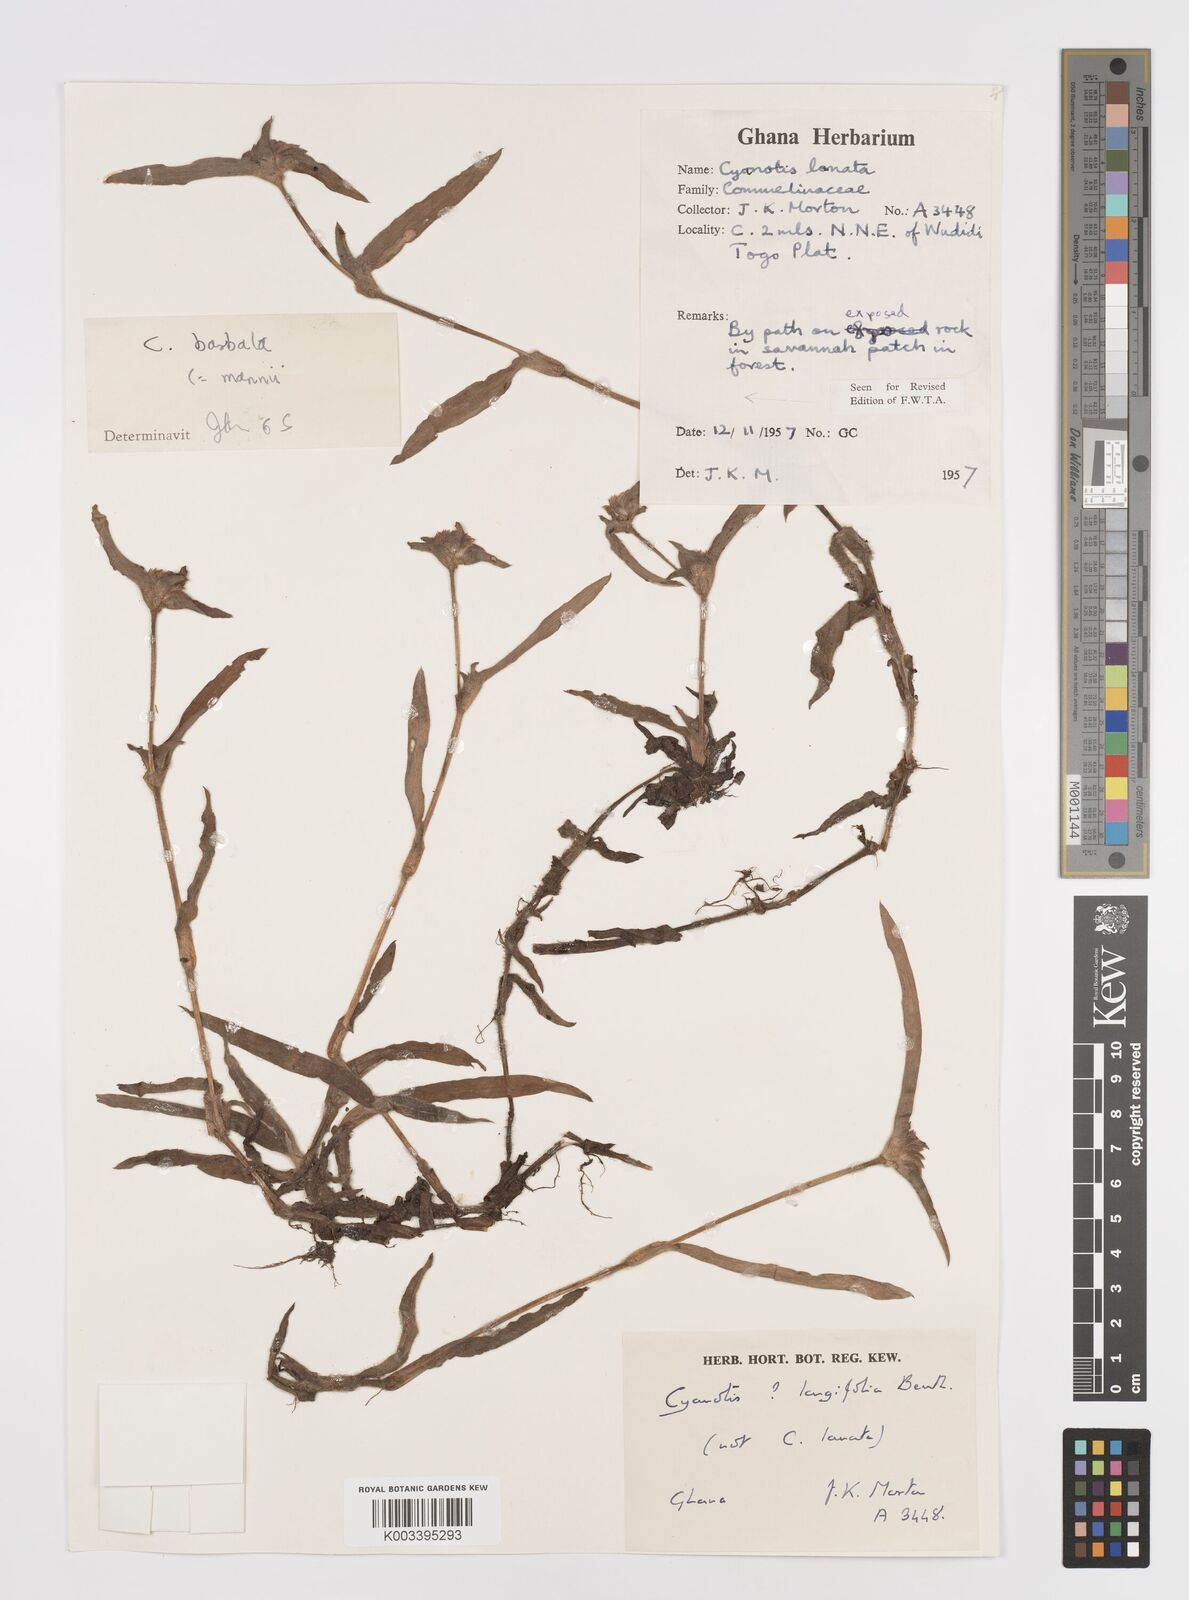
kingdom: Plantae
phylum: Tracheophyta
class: Liliopsida
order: Commelinales
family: Commelinaceae
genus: Cyanotis
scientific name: Cyanotis vaga
